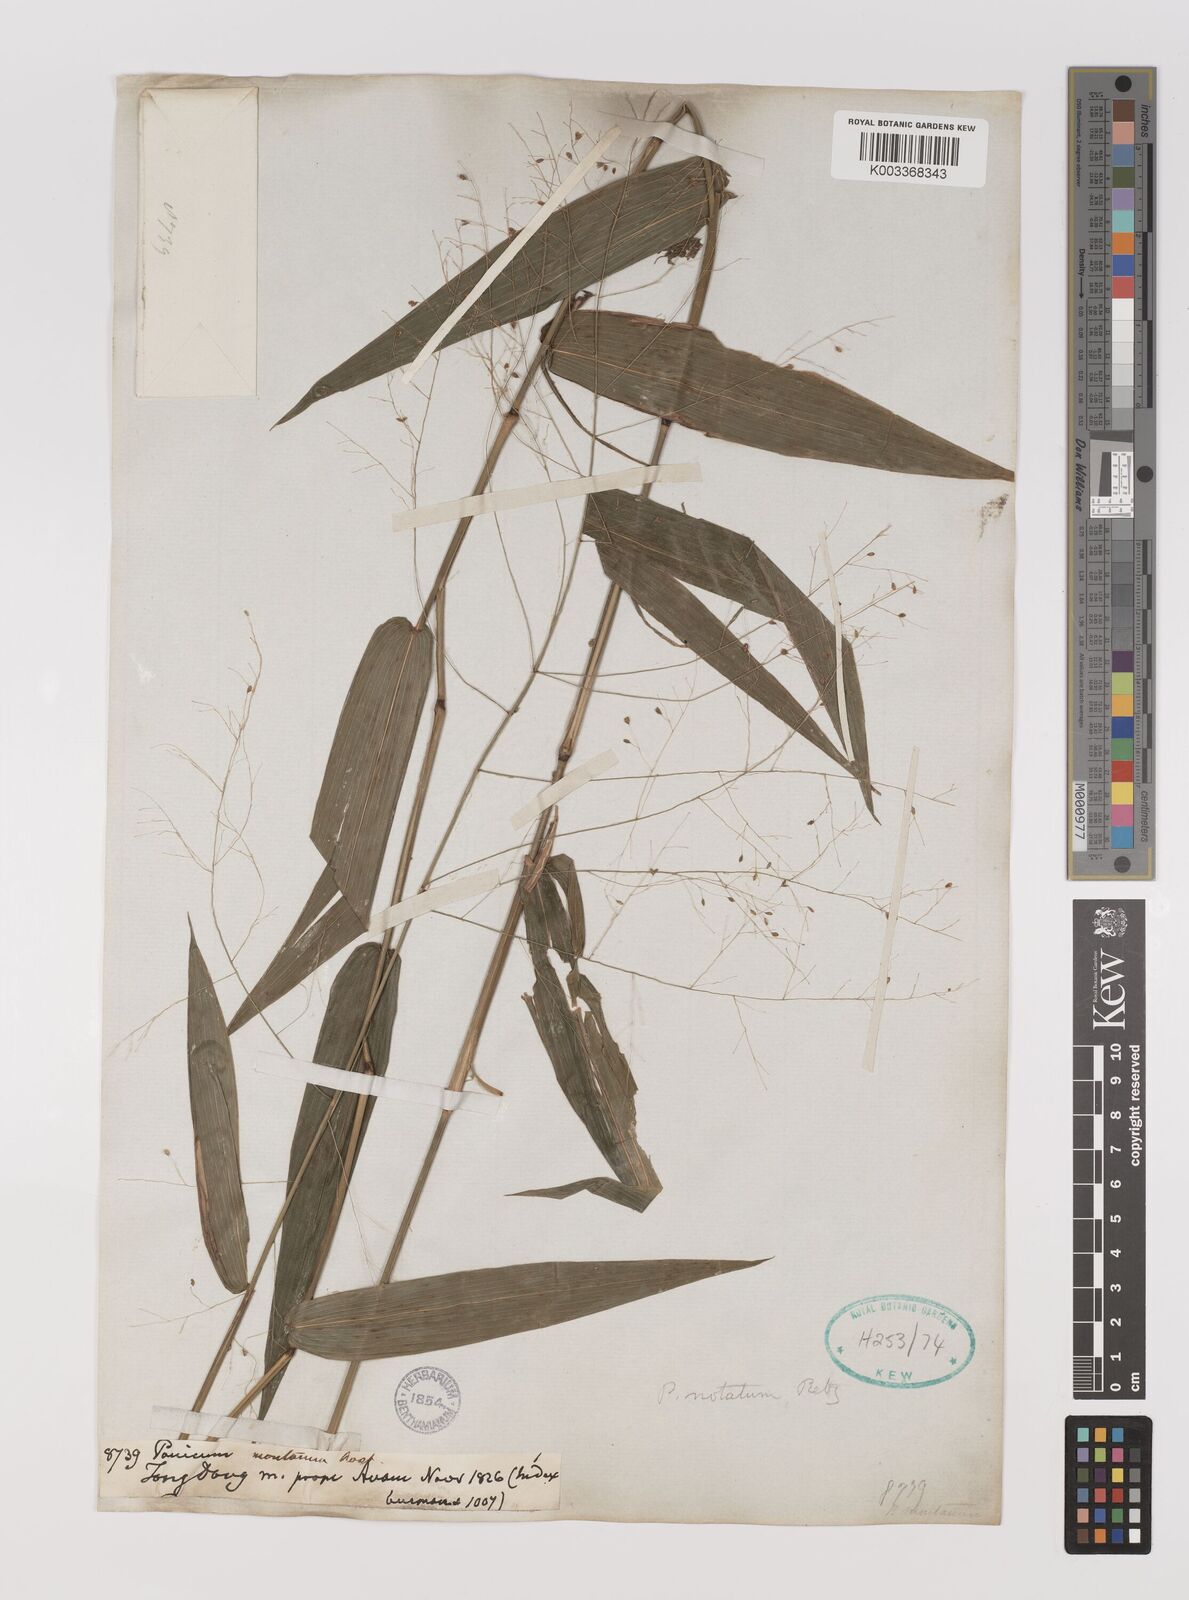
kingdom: Plantae
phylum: Tracheophyta
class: Liliopsida
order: Poales
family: Poaceae
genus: Panicum
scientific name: Panicum notatum
